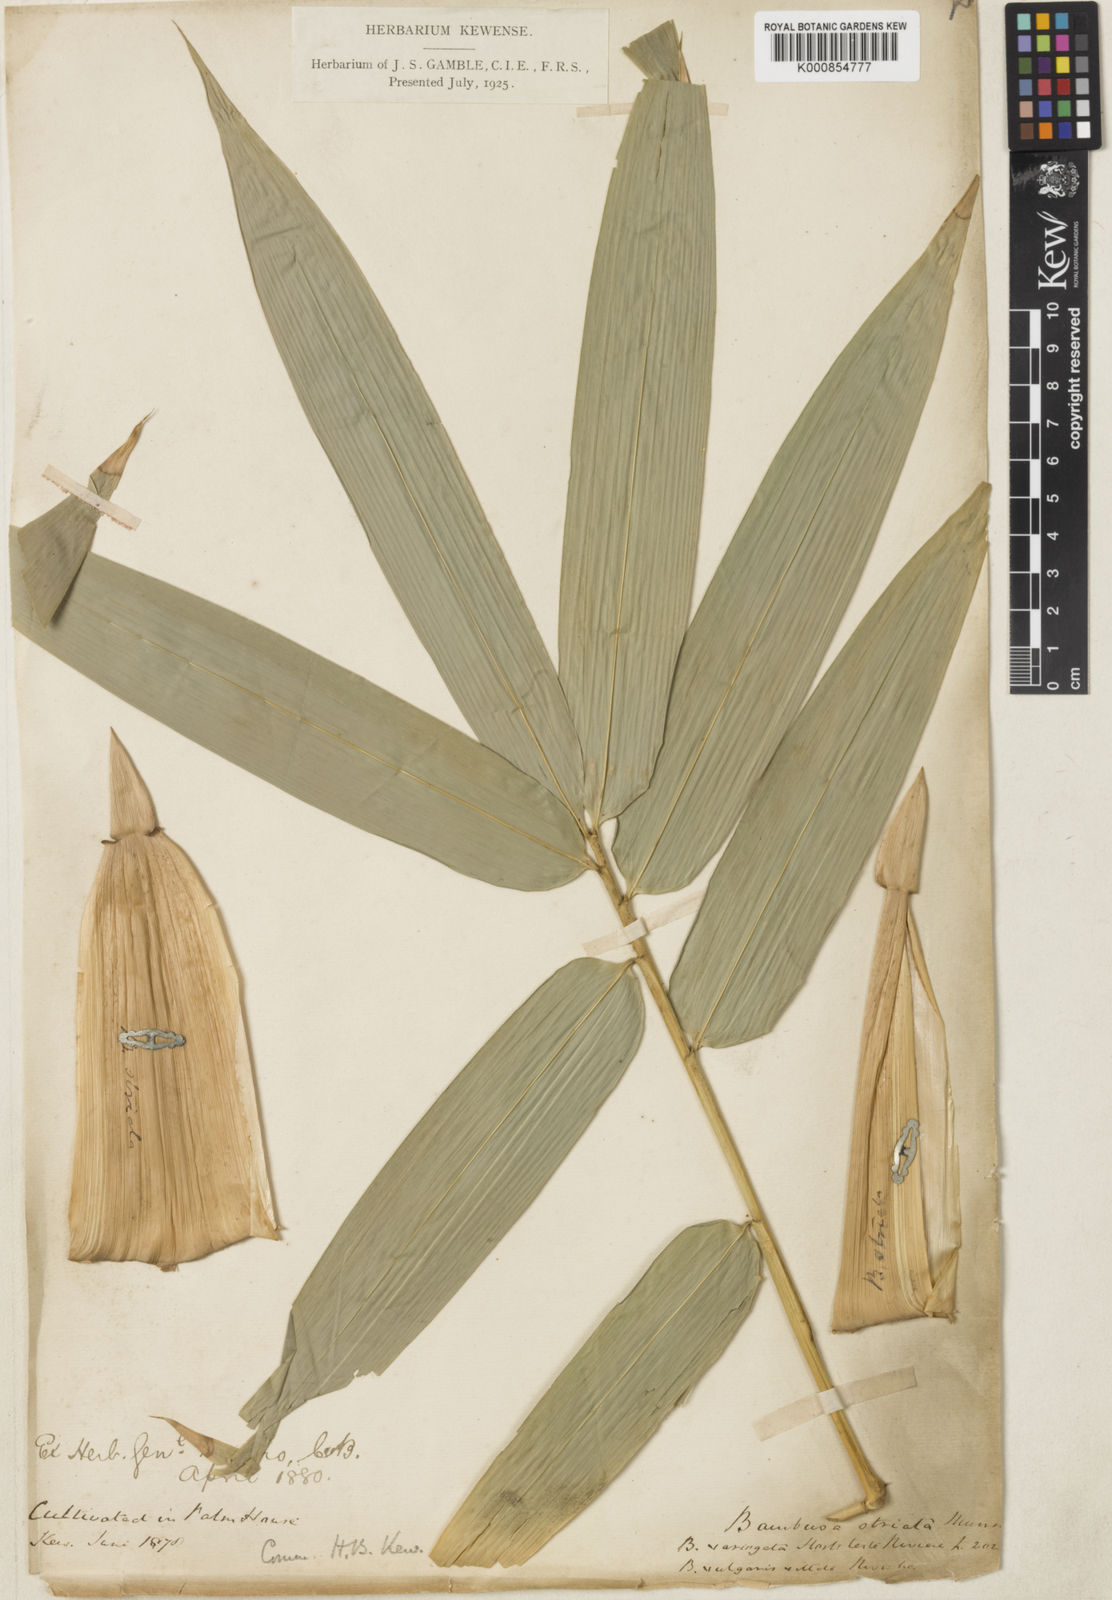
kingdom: Plantae
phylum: Tracheophyta
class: Liliopsida
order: Poales
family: Poaceae
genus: Bambusa
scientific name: Bambusa balcooa
